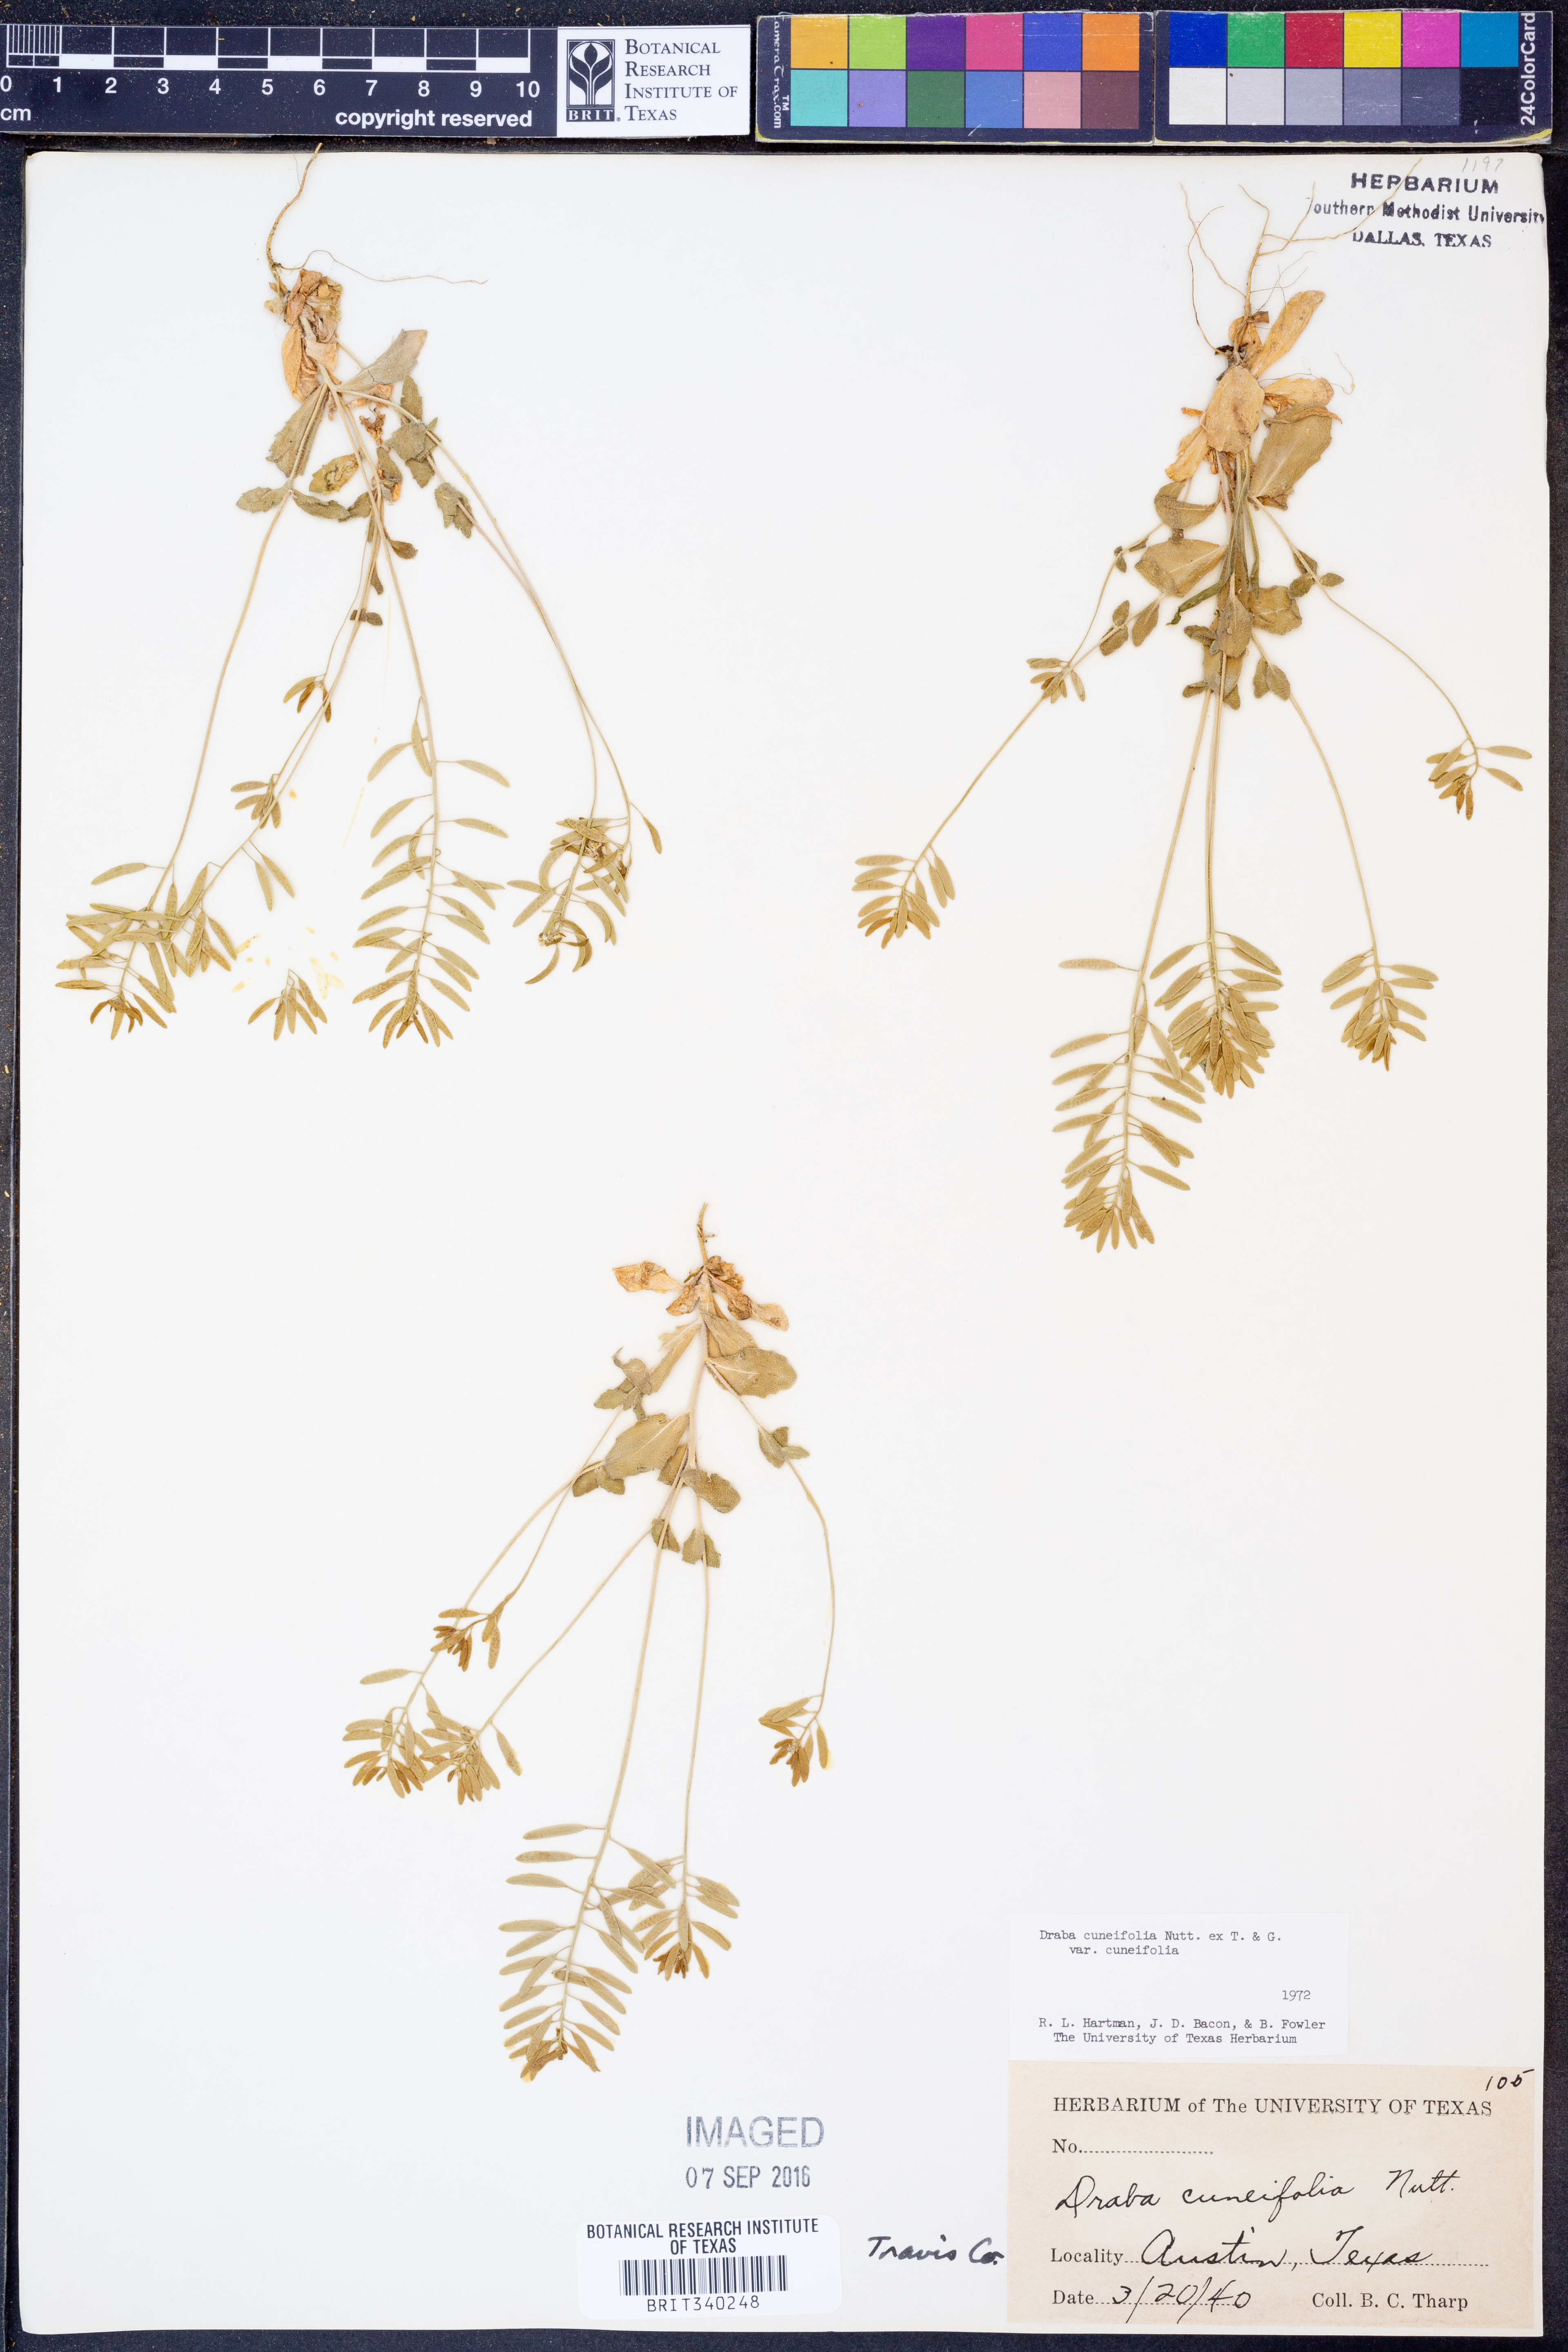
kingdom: Plantae
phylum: Tracheophyta
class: Magnoliopsida
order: Brassicales
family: Brassicaceae
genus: Tomostima
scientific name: Tomostima cuneifolia
